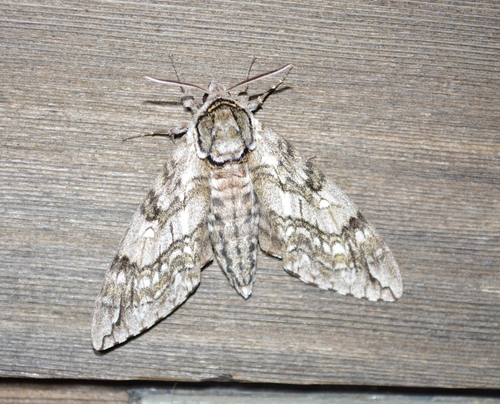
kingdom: Animalia
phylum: Arthropoda
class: Insecta
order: Lepidoptera
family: Sphingidae
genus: Ceratomia
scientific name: Ceratomia undulosa
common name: Waved sphinx
